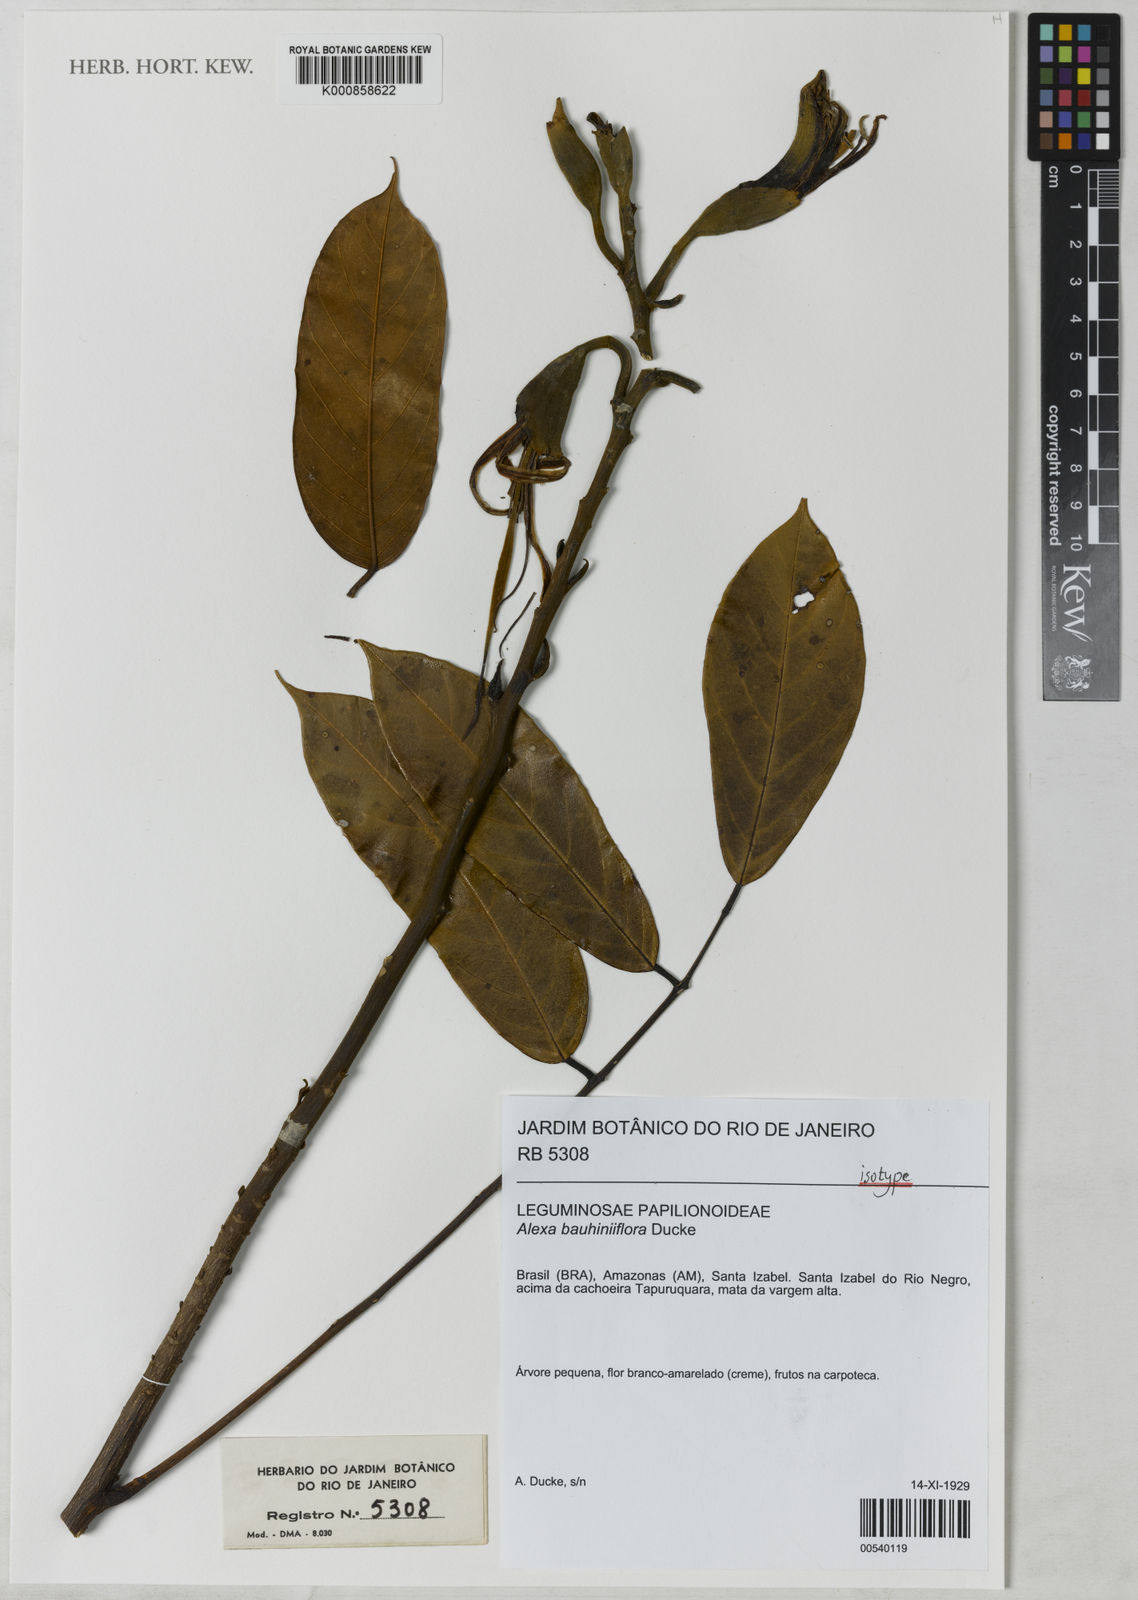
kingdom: Plantae
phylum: Tracheophyta
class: Magnoliopsida
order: Fabales
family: Fabaceae
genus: Alexa
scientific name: Alexa bauhiniiflora
